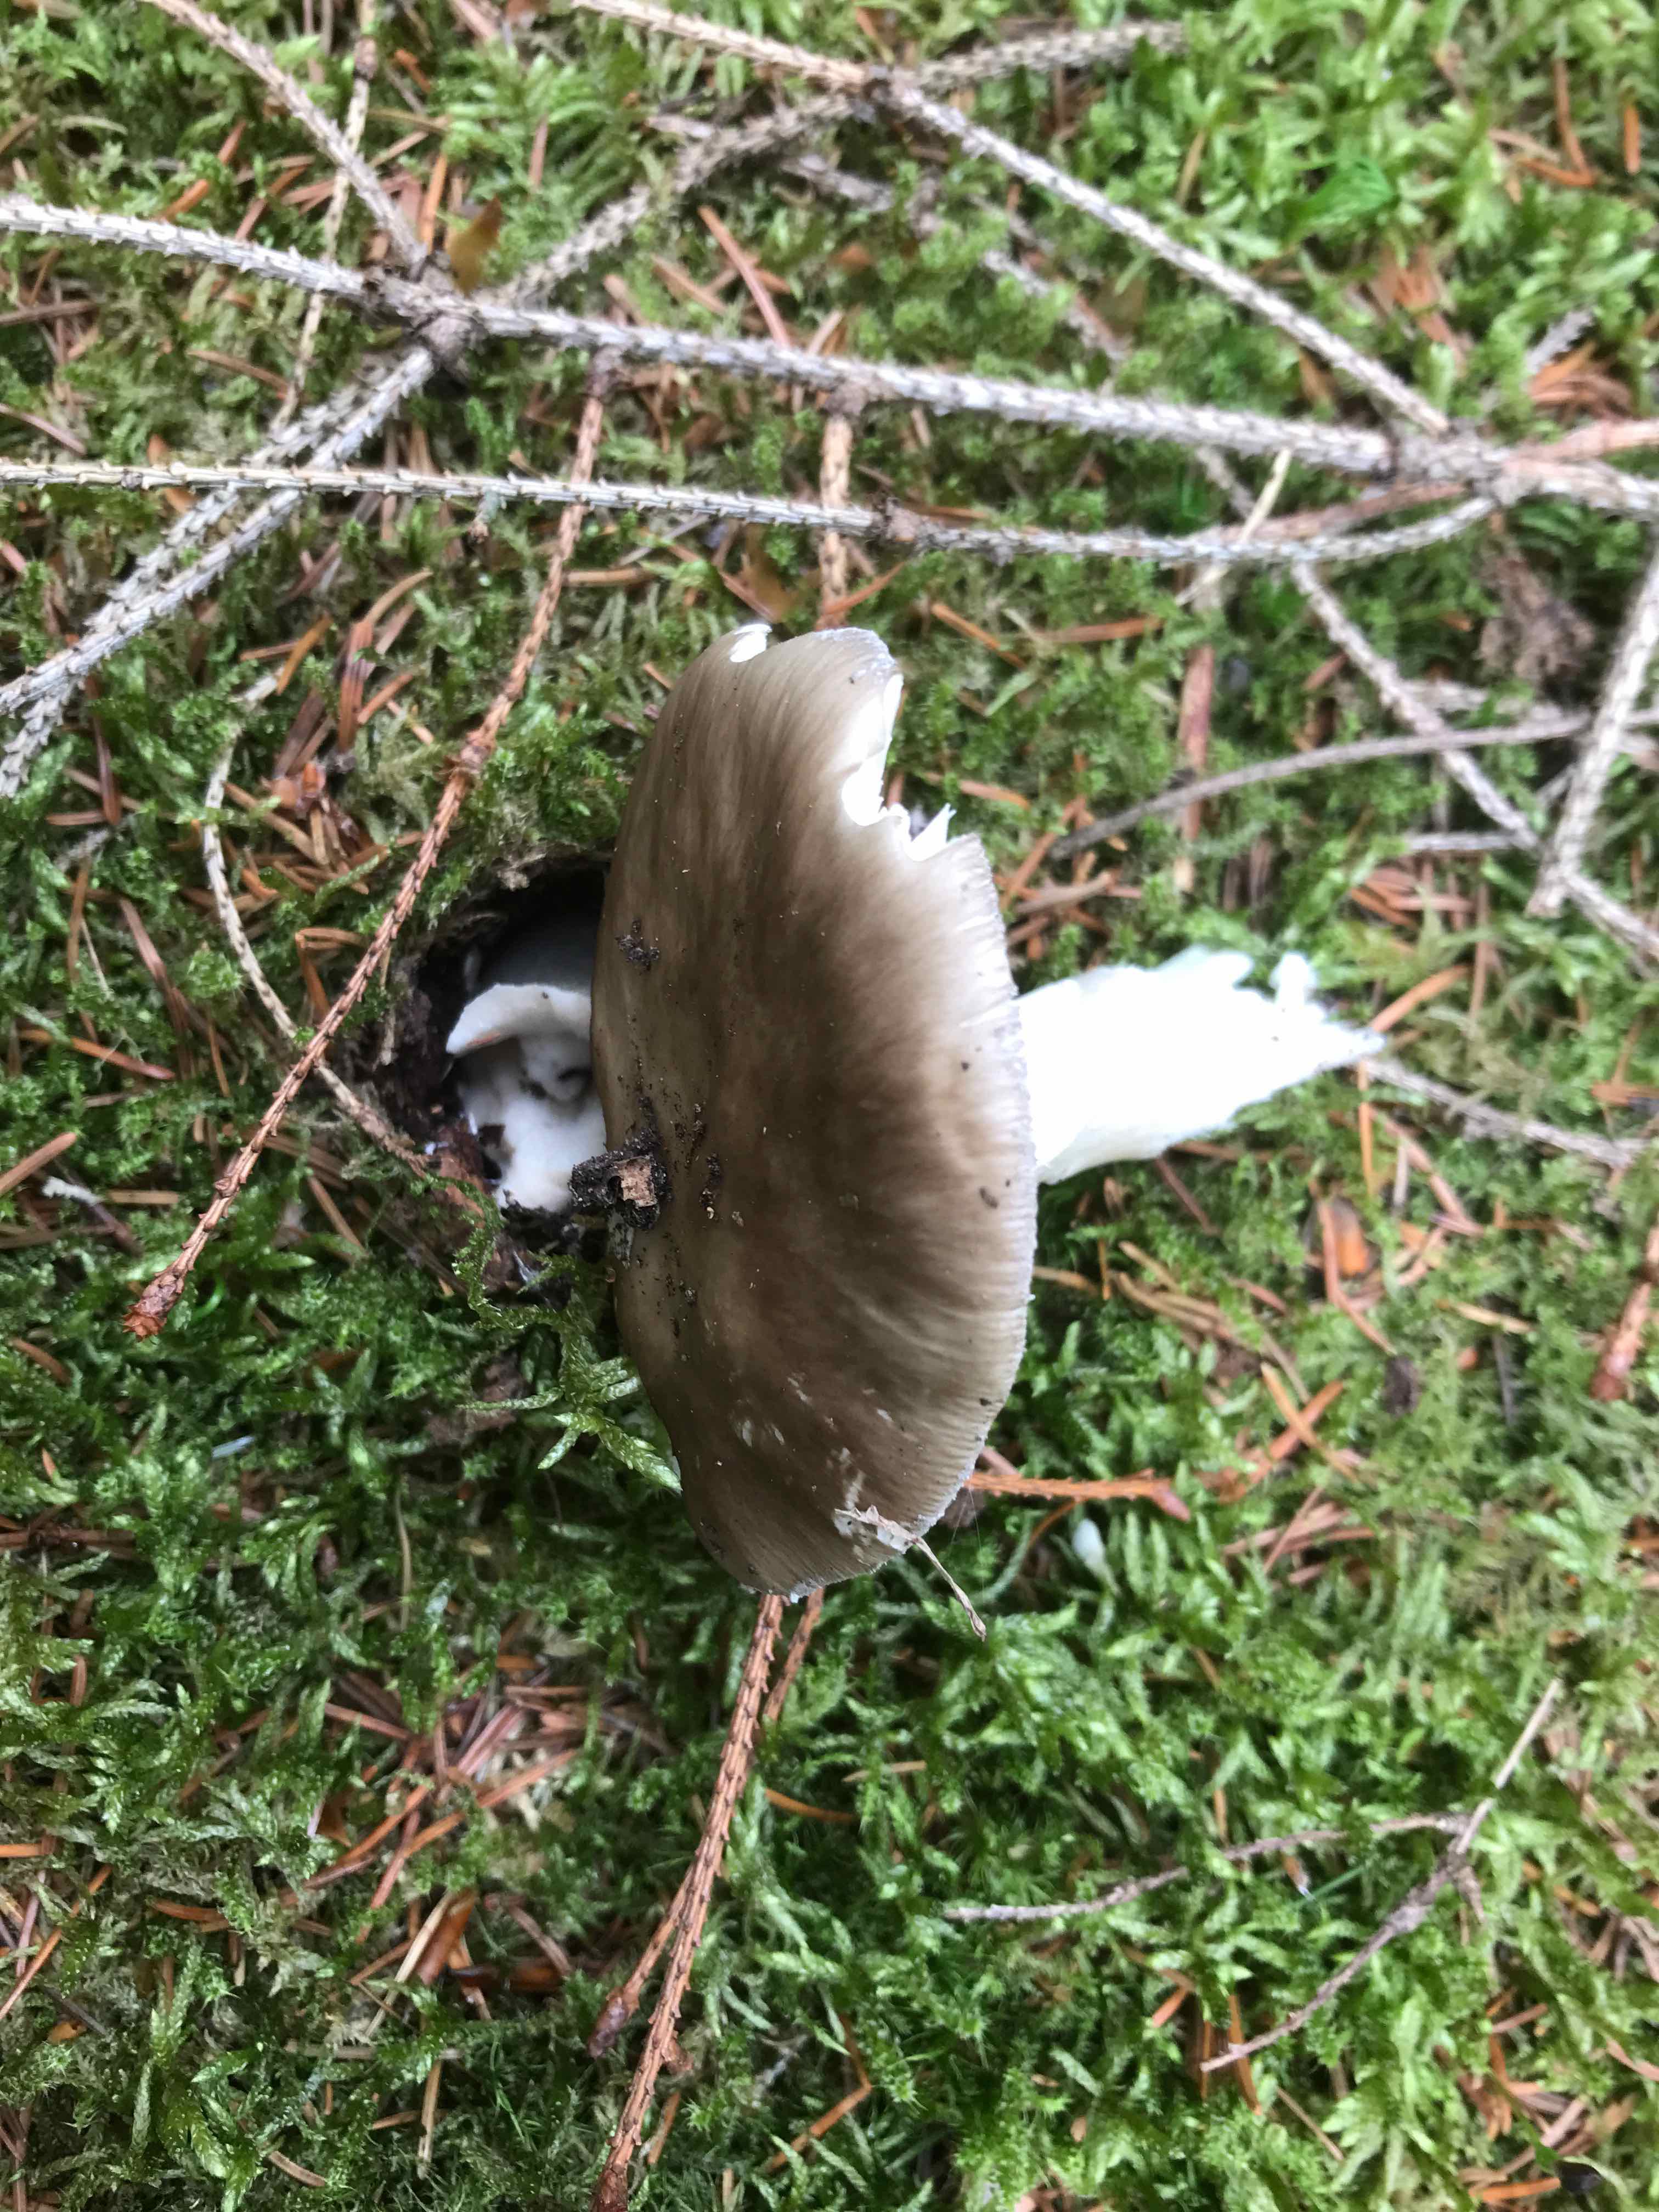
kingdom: Fungi
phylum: Basidiomycota
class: Agaricomycetes
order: Agaricales
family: Amanitaceae
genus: Amanita
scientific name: Amanita
